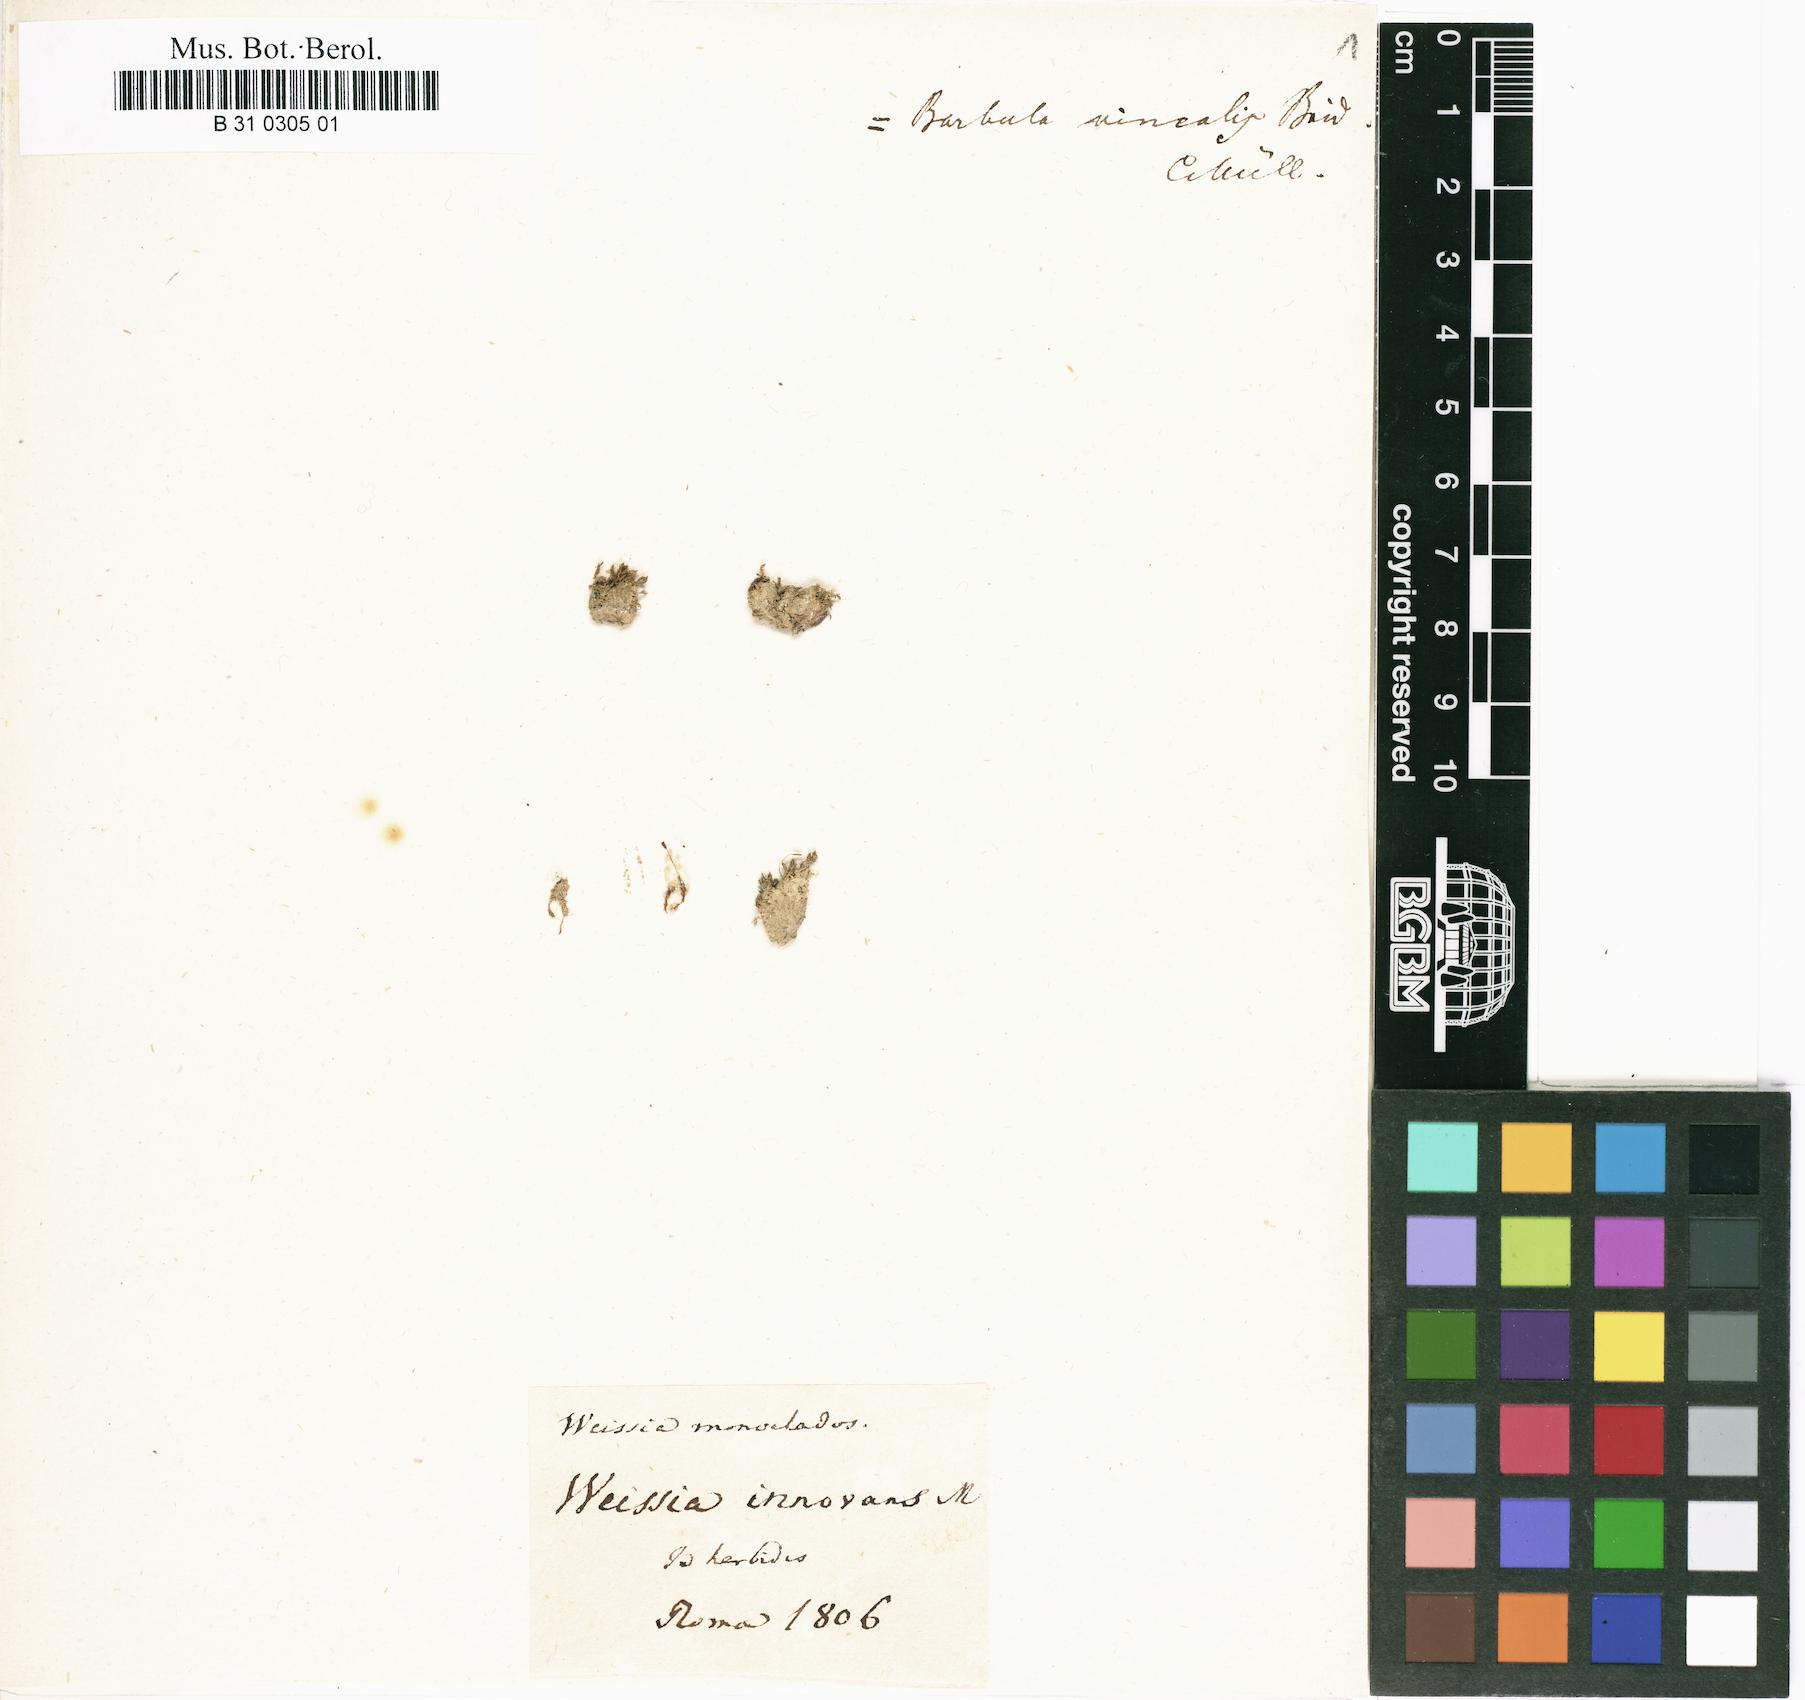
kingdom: Plantae
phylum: Bryophyta
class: Bryopsida
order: Pottiales
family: Pottiaceae
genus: Vinealobryum
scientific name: Vinealobryum vineale
